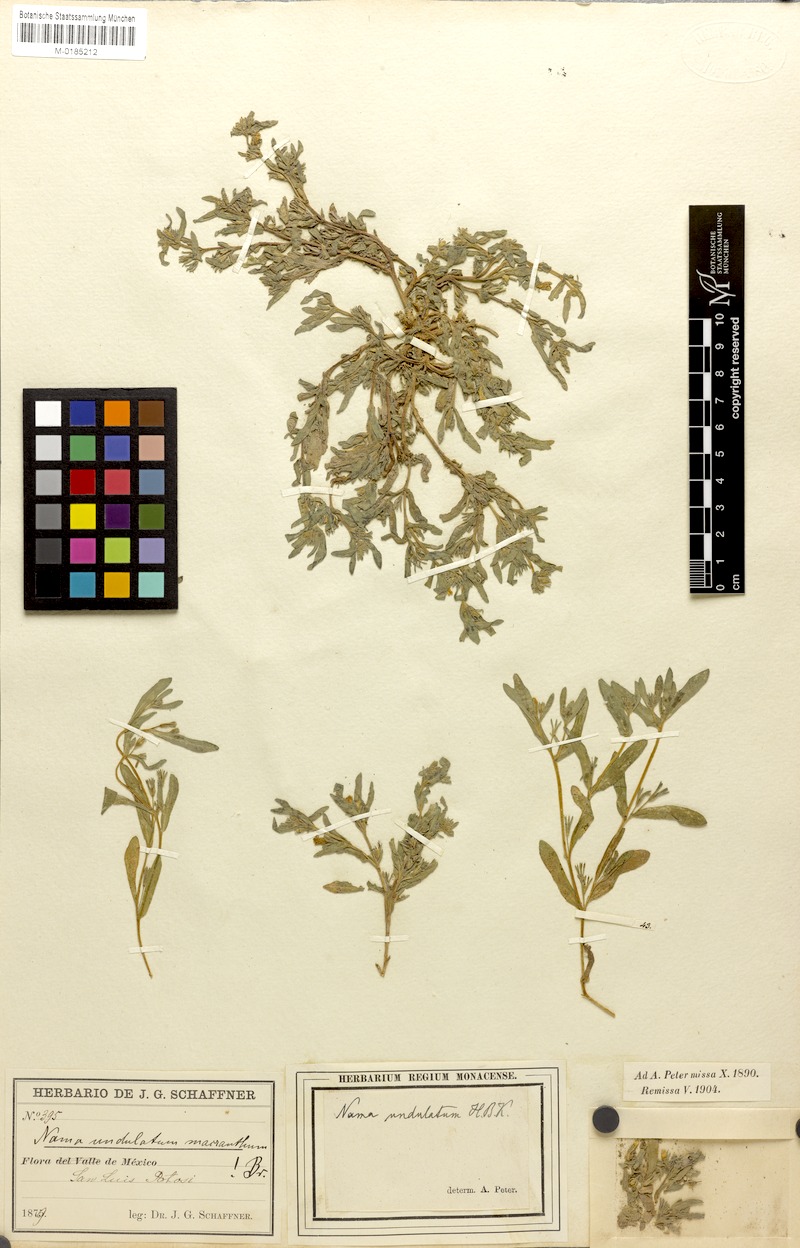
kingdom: Plantae
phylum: Tracheophyta
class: Magnoliopsida
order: Boraginales
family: Namaceae
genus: Nama
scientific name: Nama undulata
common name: Whitewhisker fiddleleaf
